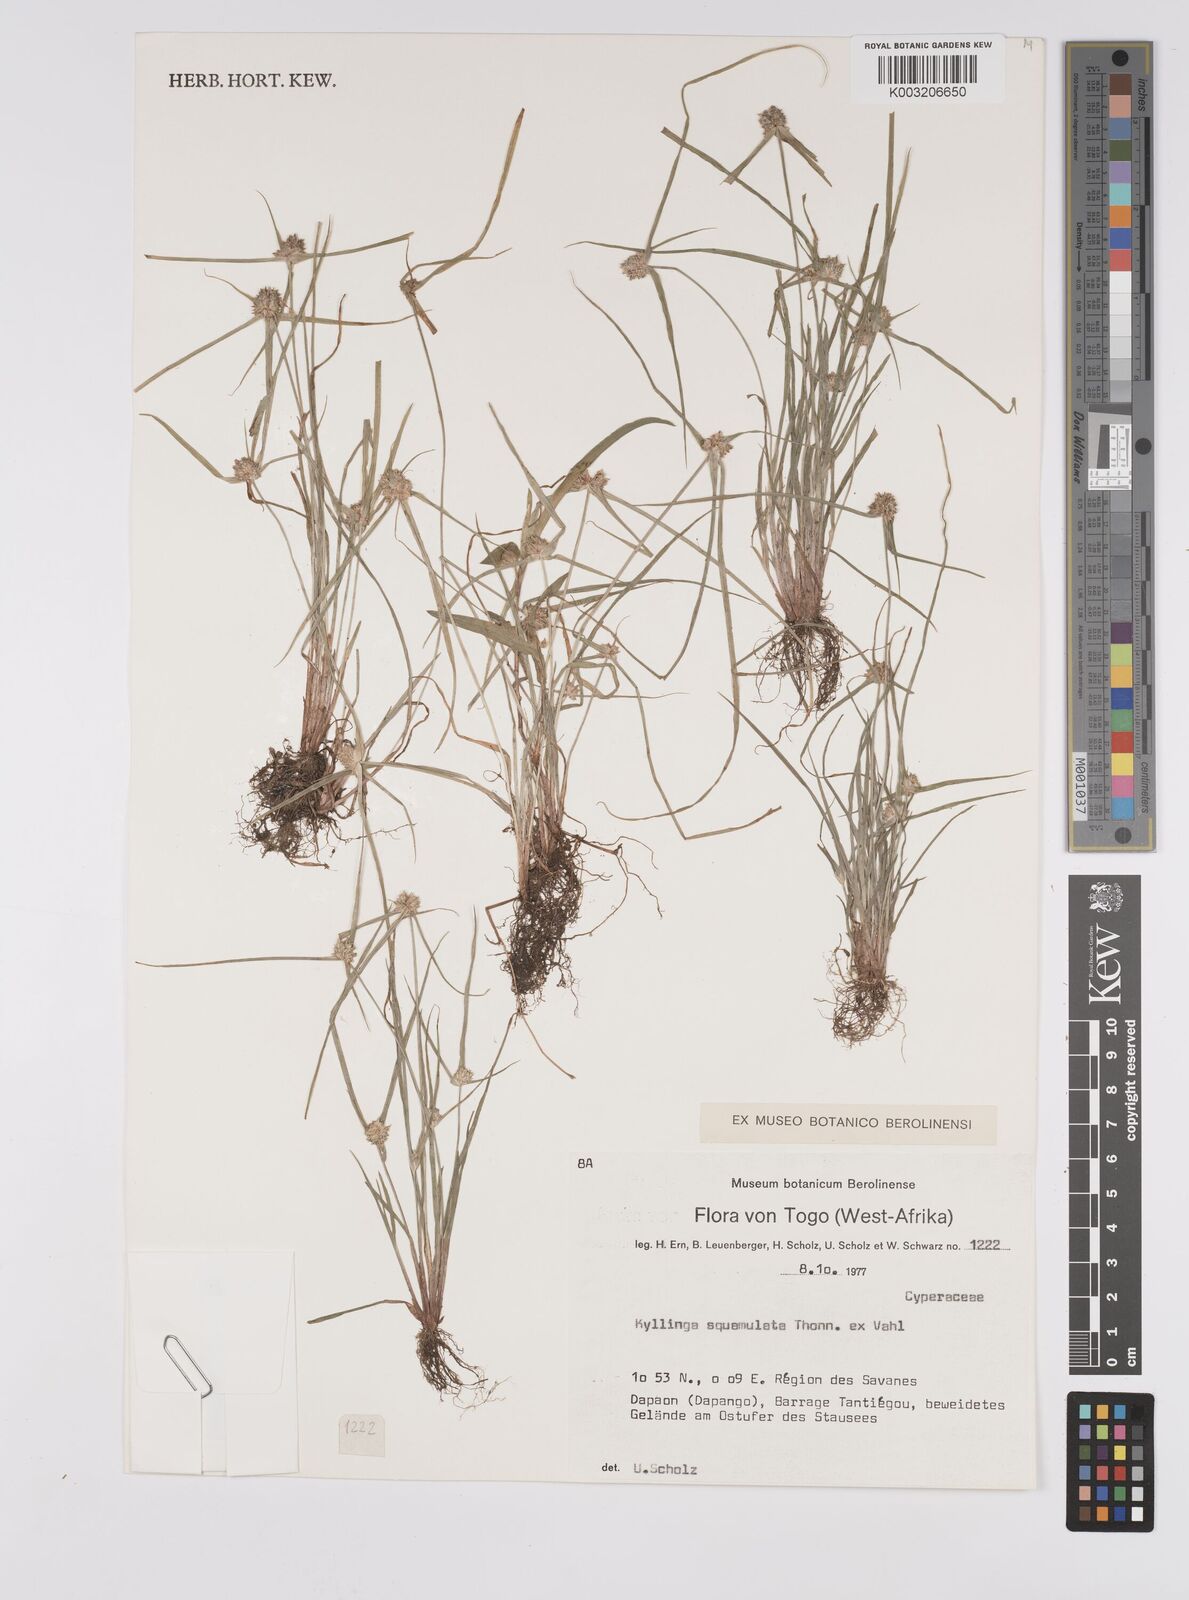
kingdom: Plantae
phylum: Tracheophyta
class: Liliopsida
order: Poales
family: Cyperaceae
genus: Cyperus
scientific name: Cyperus distans
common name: Slender cyperus
